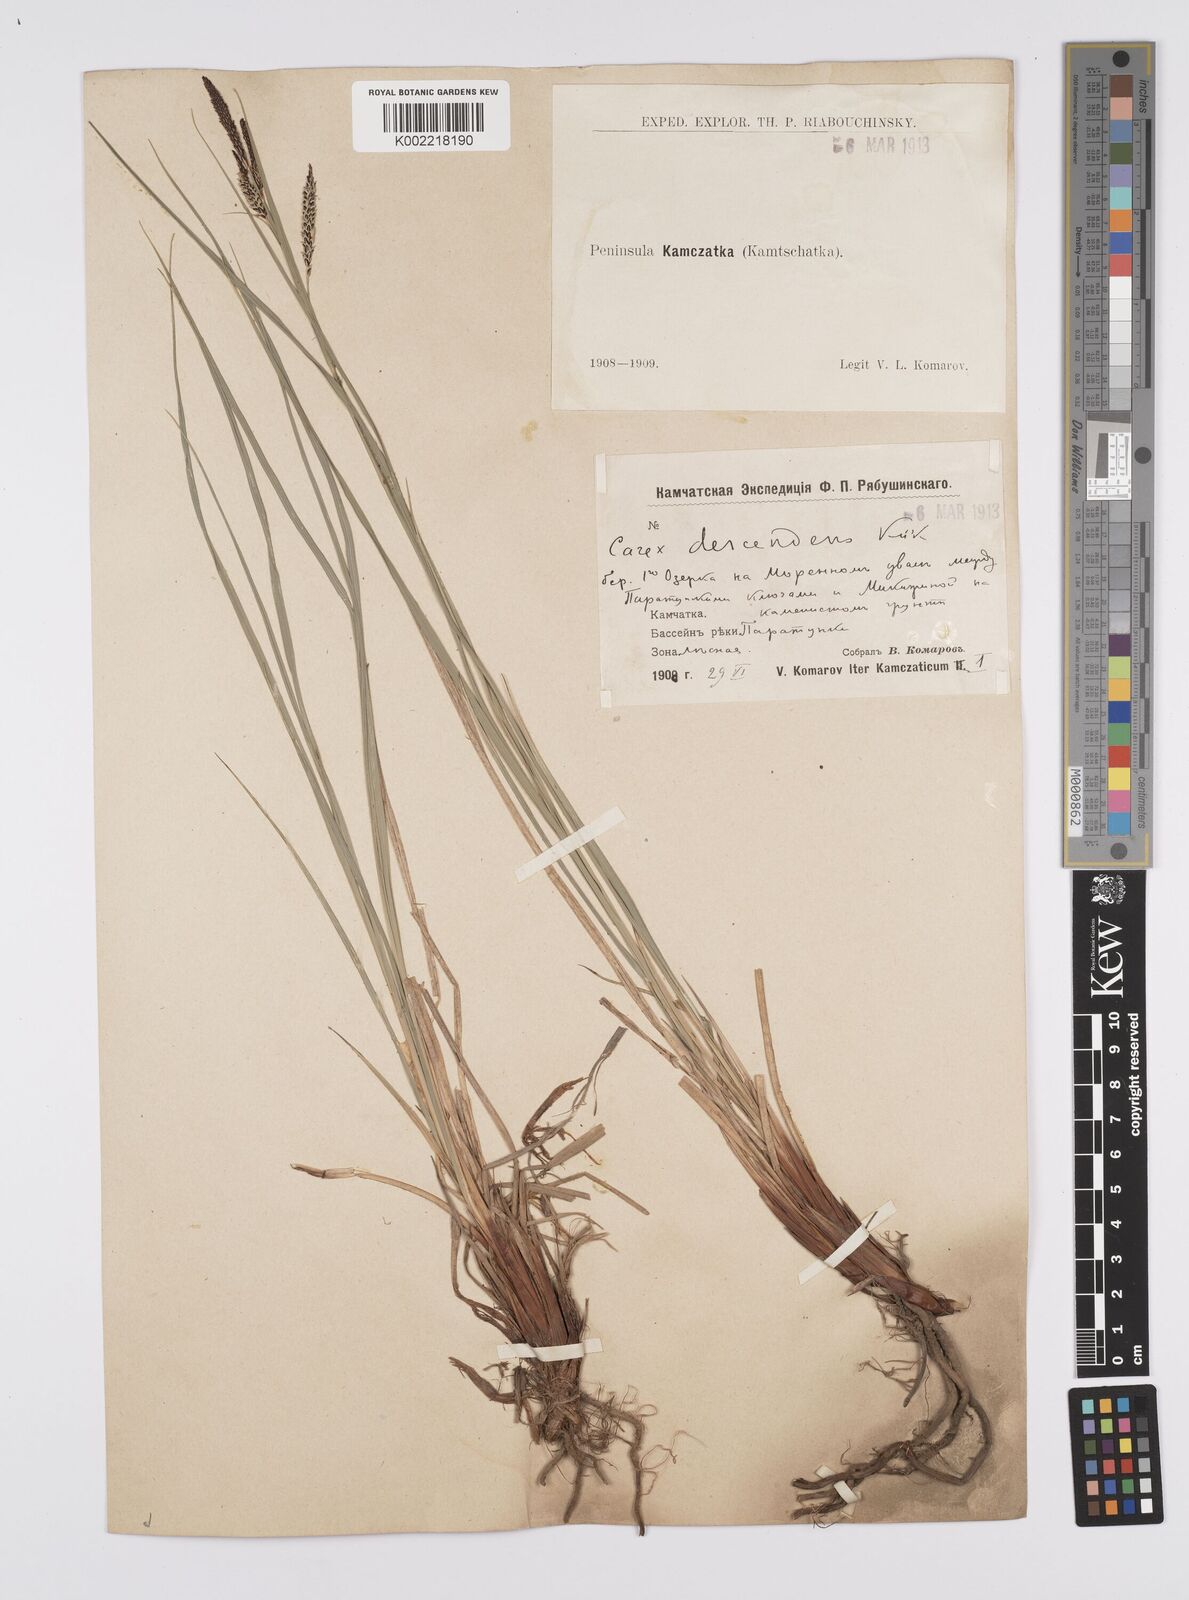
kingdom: Plantae
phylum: Tracheophyta
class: Liliopsida
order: Poales
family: Cyperaceae
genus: Carex
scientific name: Carex descendens
